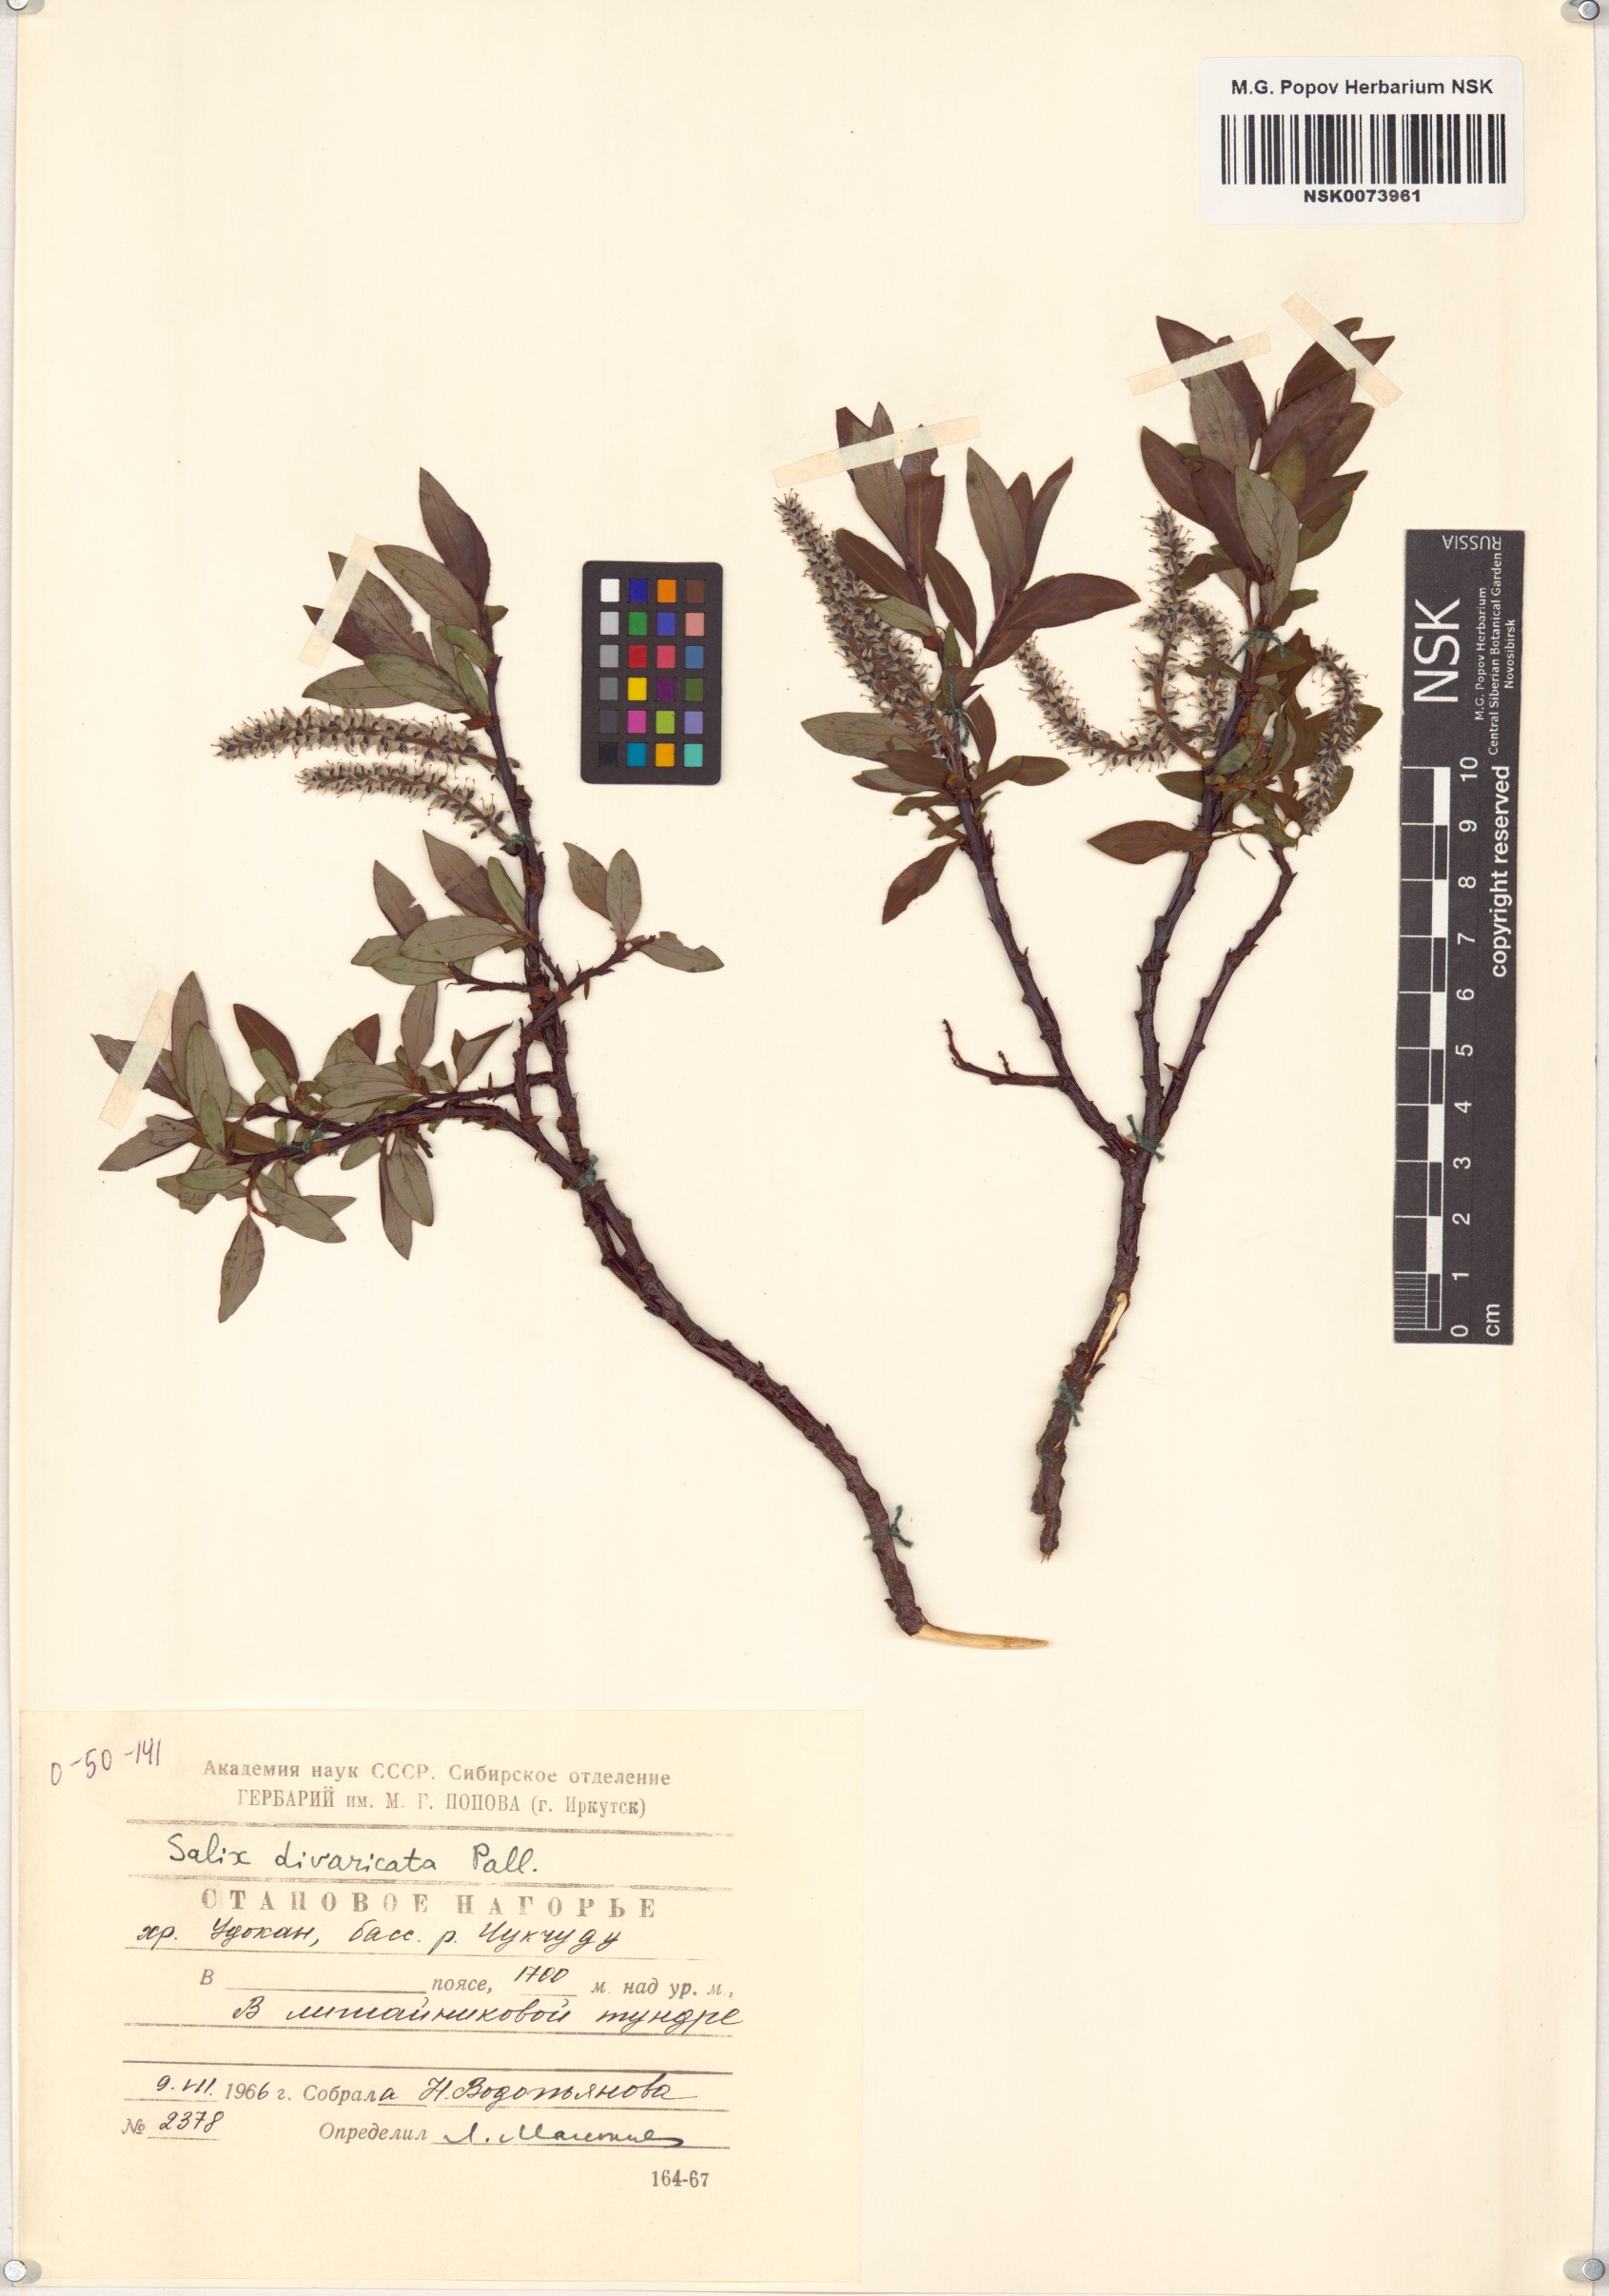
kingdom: Plantae
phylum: Tracheophyta
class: Magnoliopsida
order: Malpighiales
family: Salicaceae
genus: Salix
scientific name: Salix divaricata
